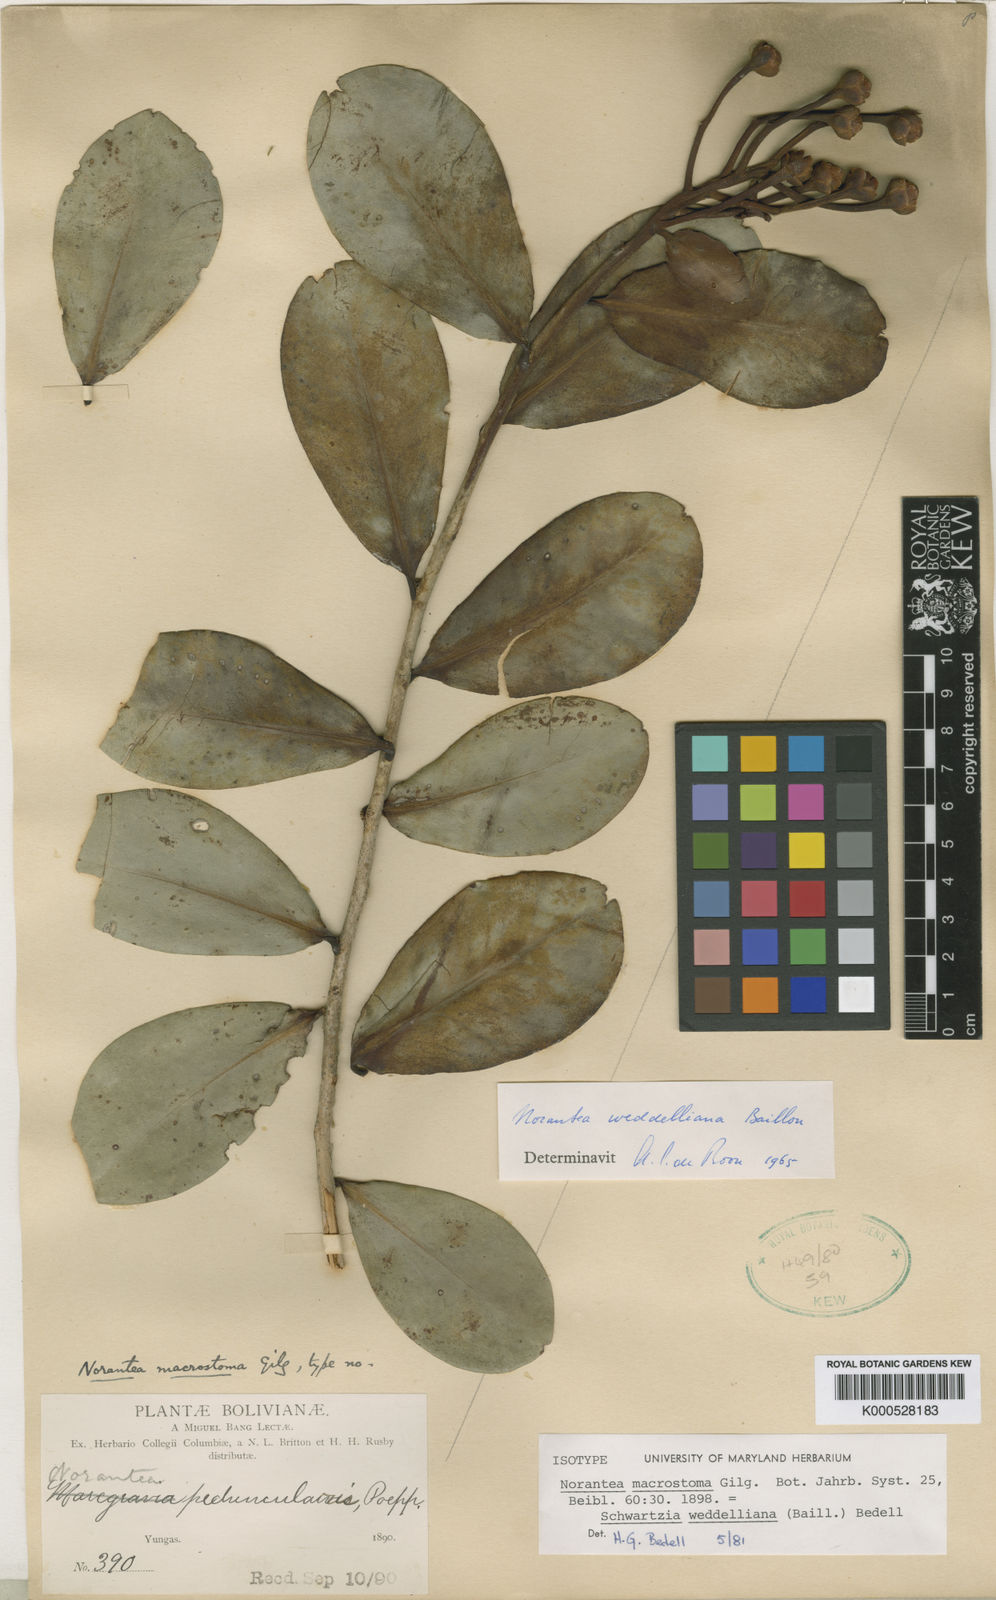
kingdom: Plantae
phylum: Tracheophyta
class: Magnoliopsida
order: Ericales
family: Marcgraviaceae
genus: Schwartzia
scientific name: Schwartzia weddelliana
